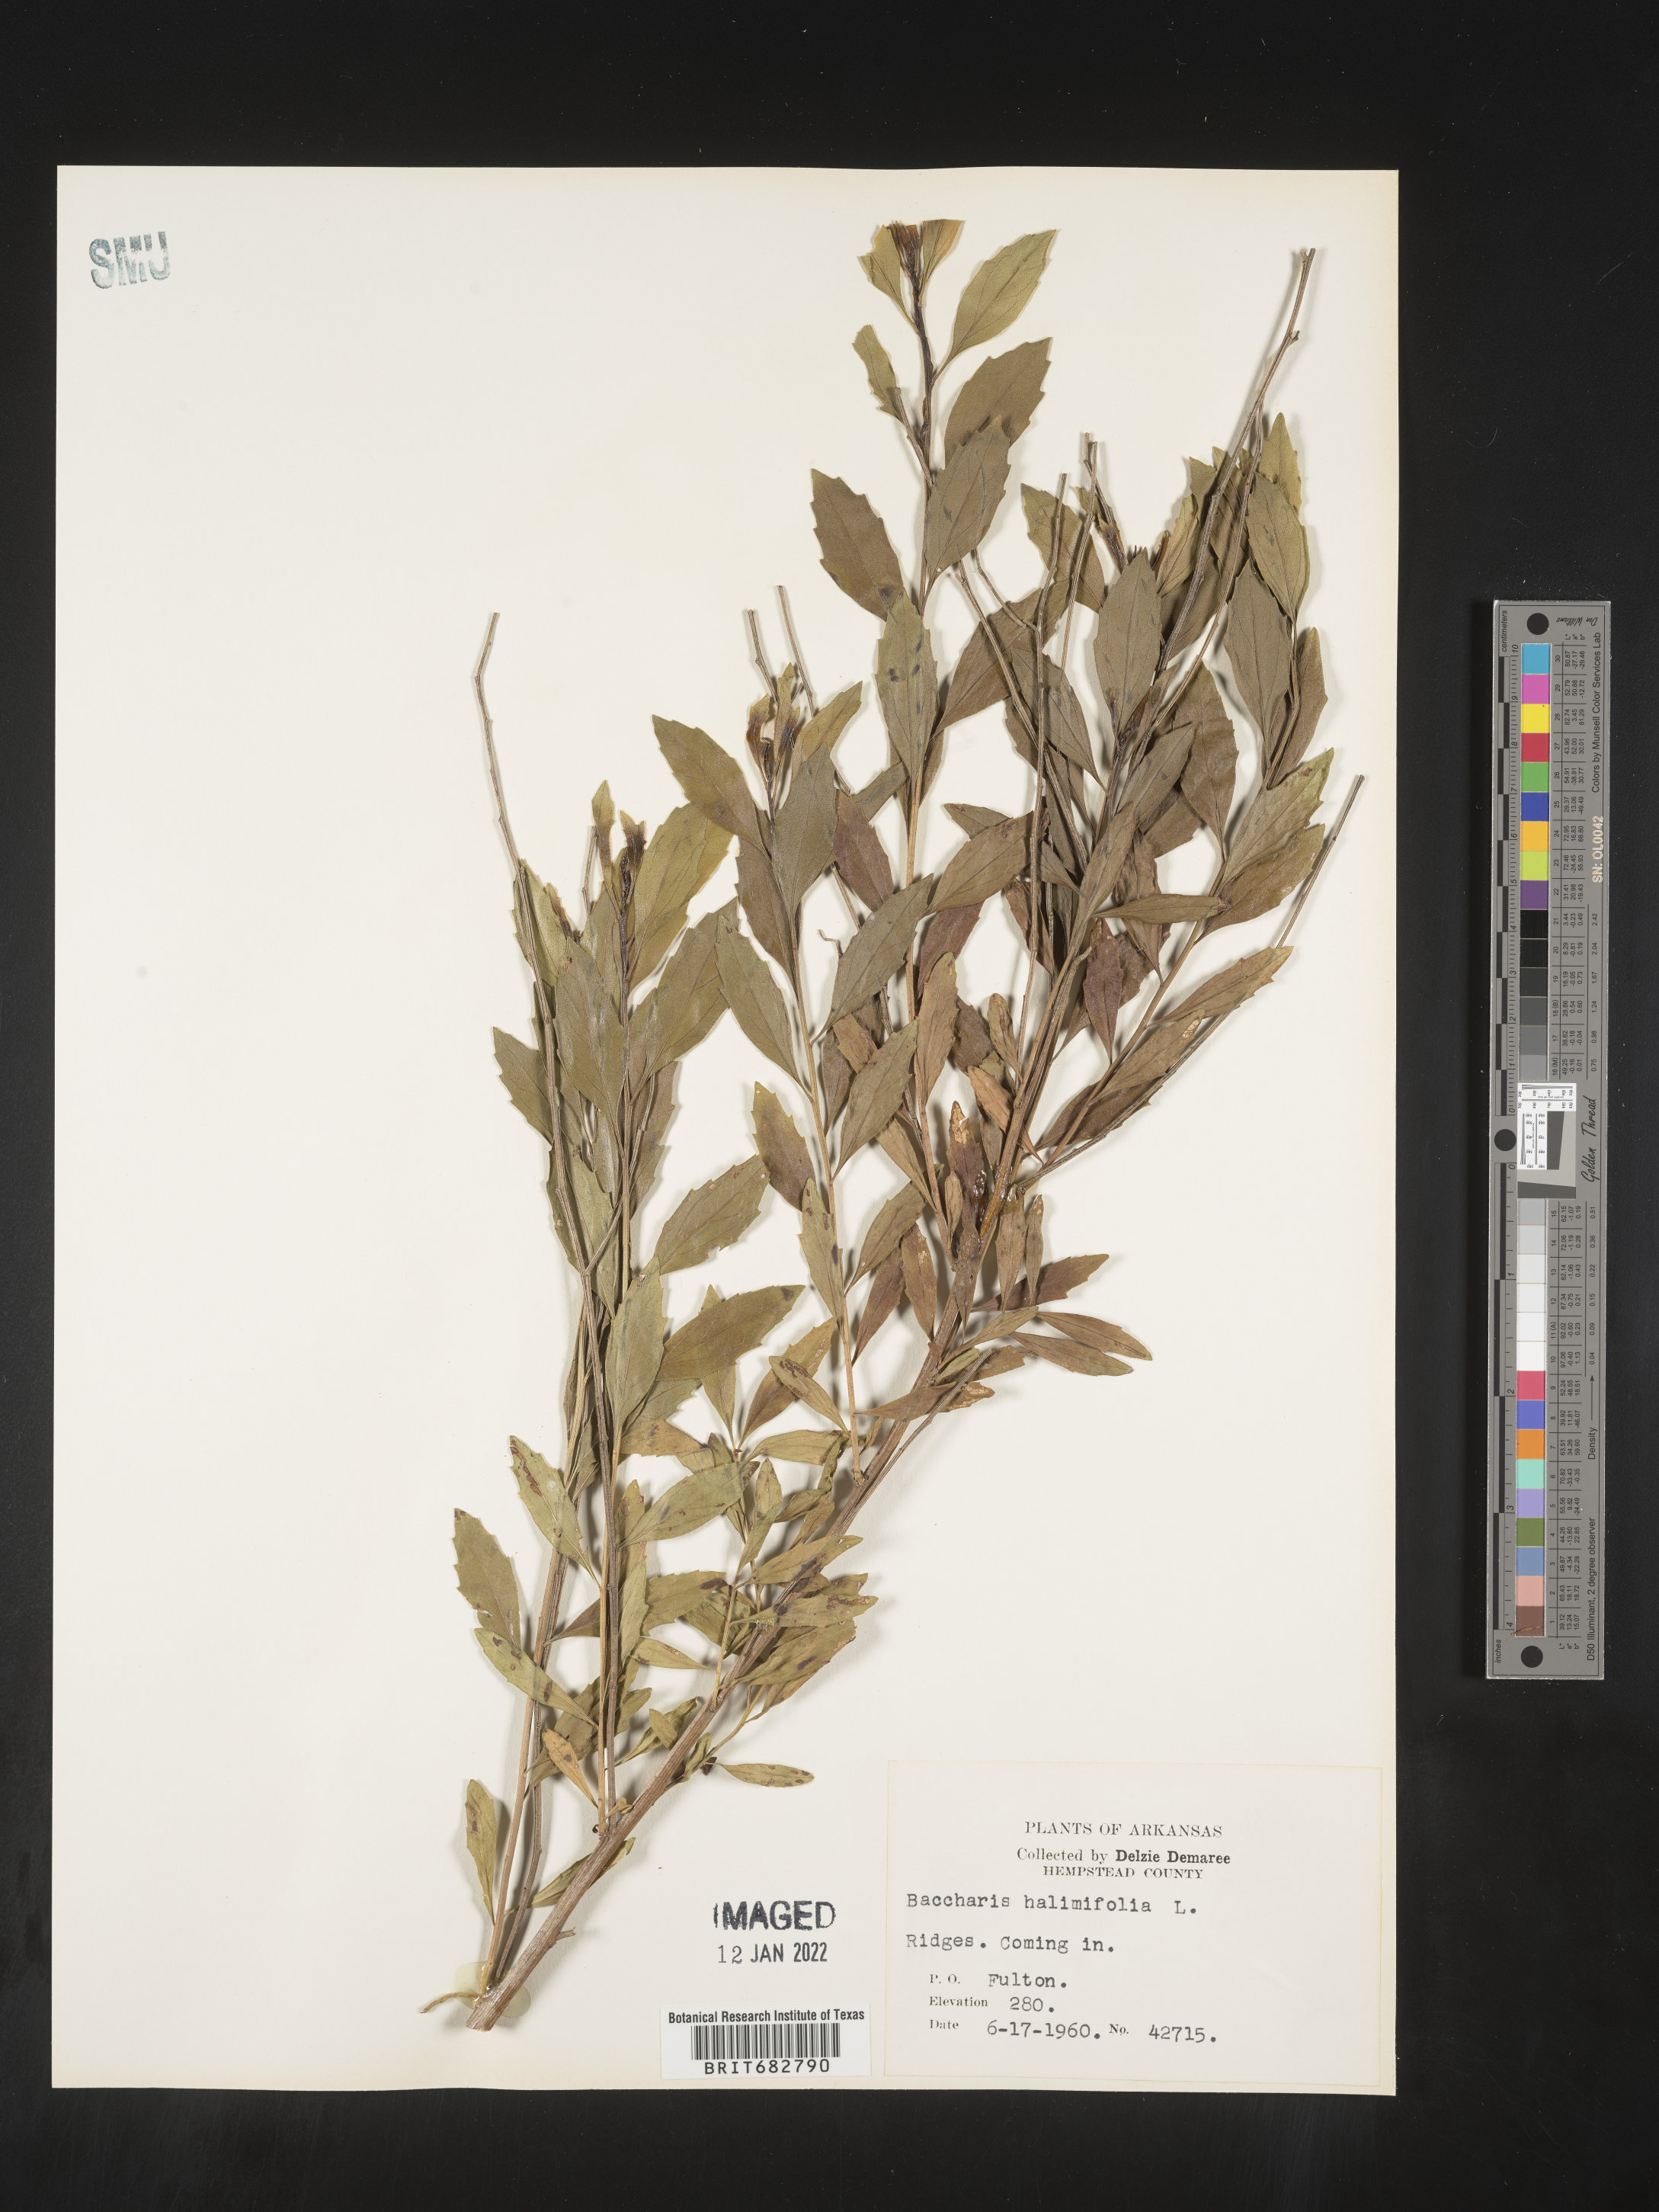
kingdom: Plantae
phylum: Tracheophyta
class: Magnoliopsida
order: Asterales
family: Asteraceae
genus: Nidorella
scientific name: Nidorella ivifolia
